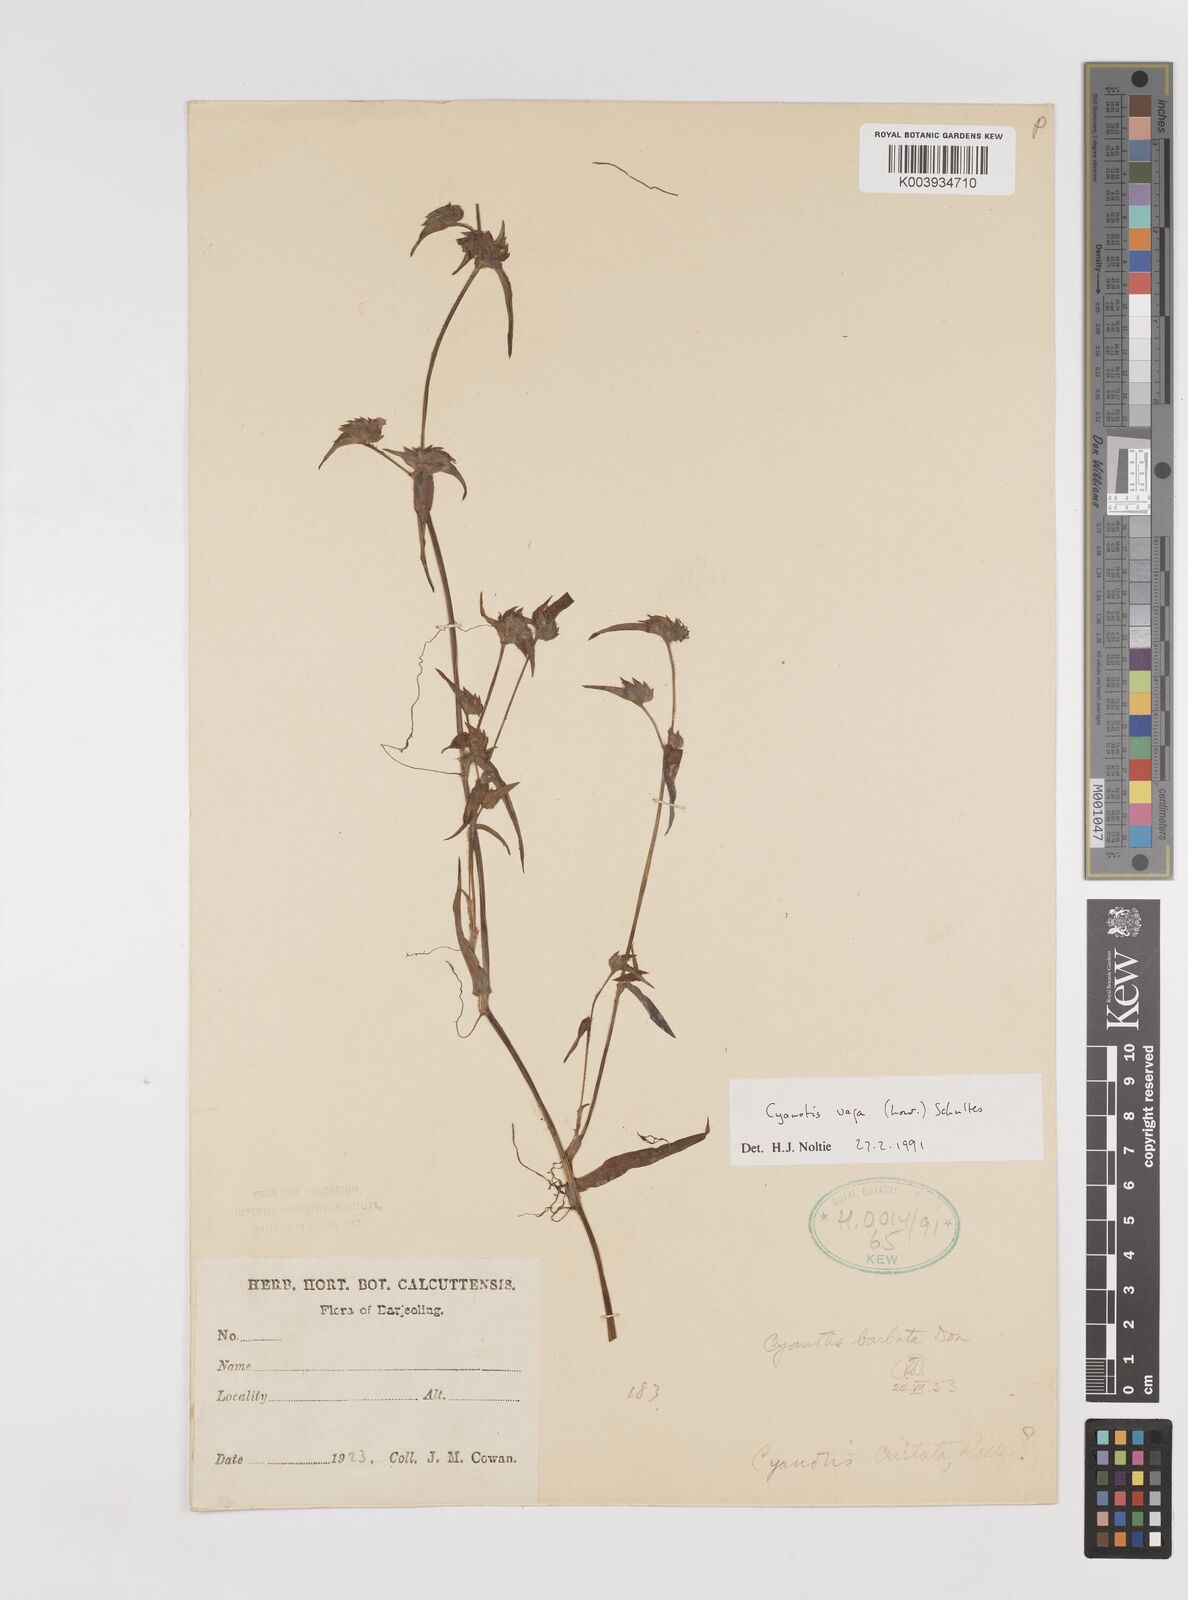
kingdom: Plantae
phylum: Tracheophyta
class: Liliopsida
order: Commelinales
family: Commelinaceae
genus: Cyanotis
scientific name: Cyanotis vaga
